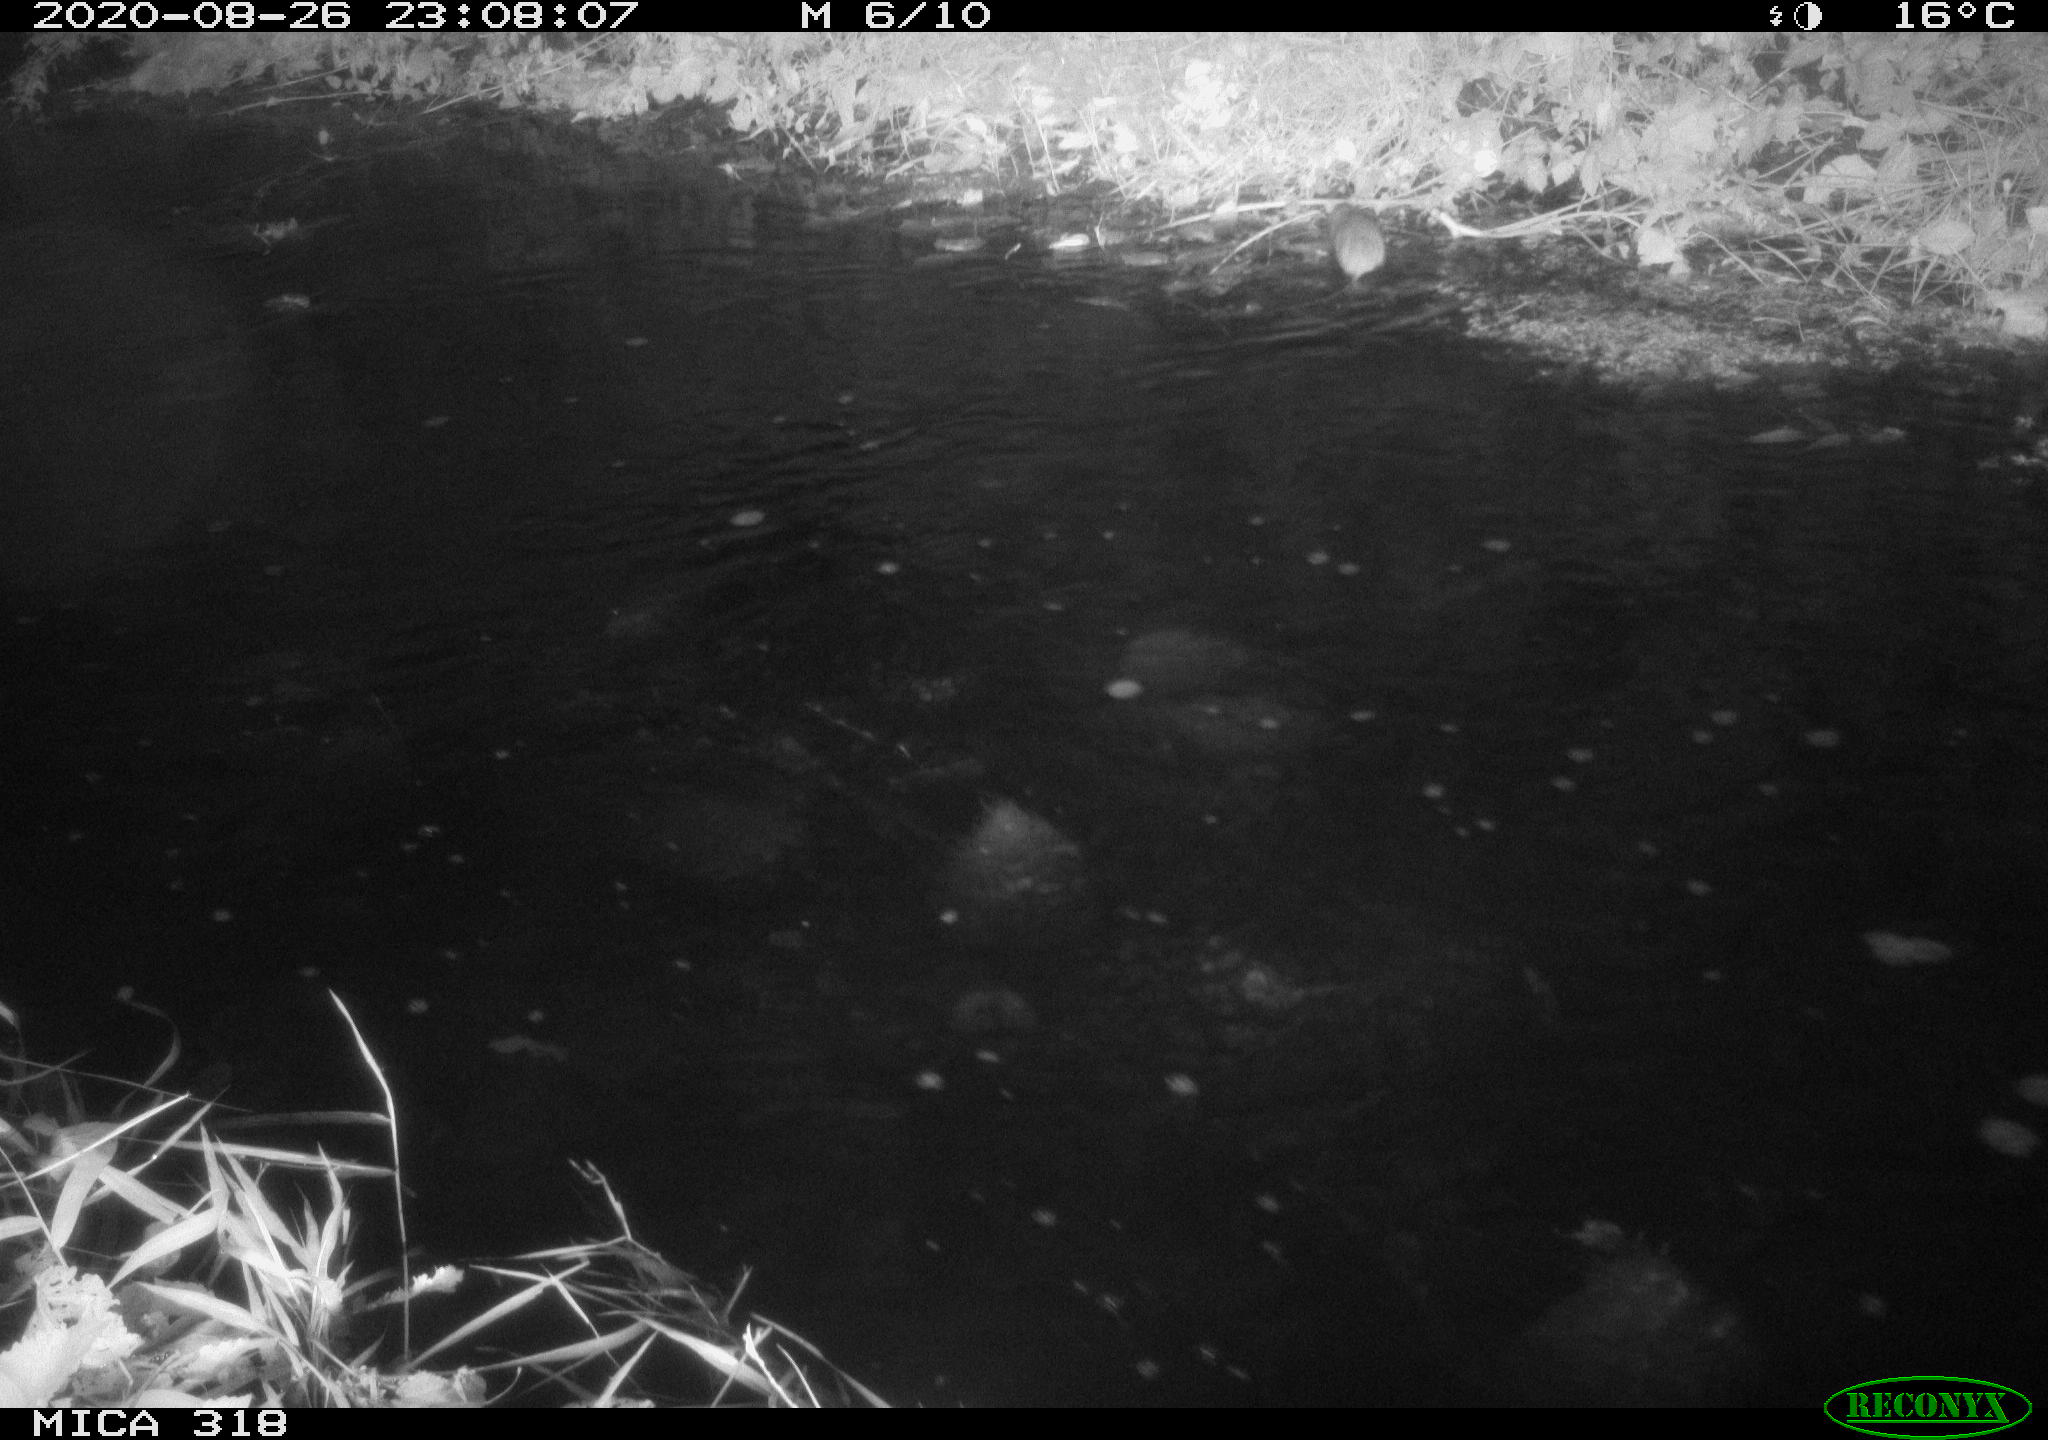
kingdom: Animalia
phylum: Chordata
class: Mammalia
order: Rodentia
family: Muridae
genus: Rattus
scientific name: Rattus norvegicus
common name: Brown rat
